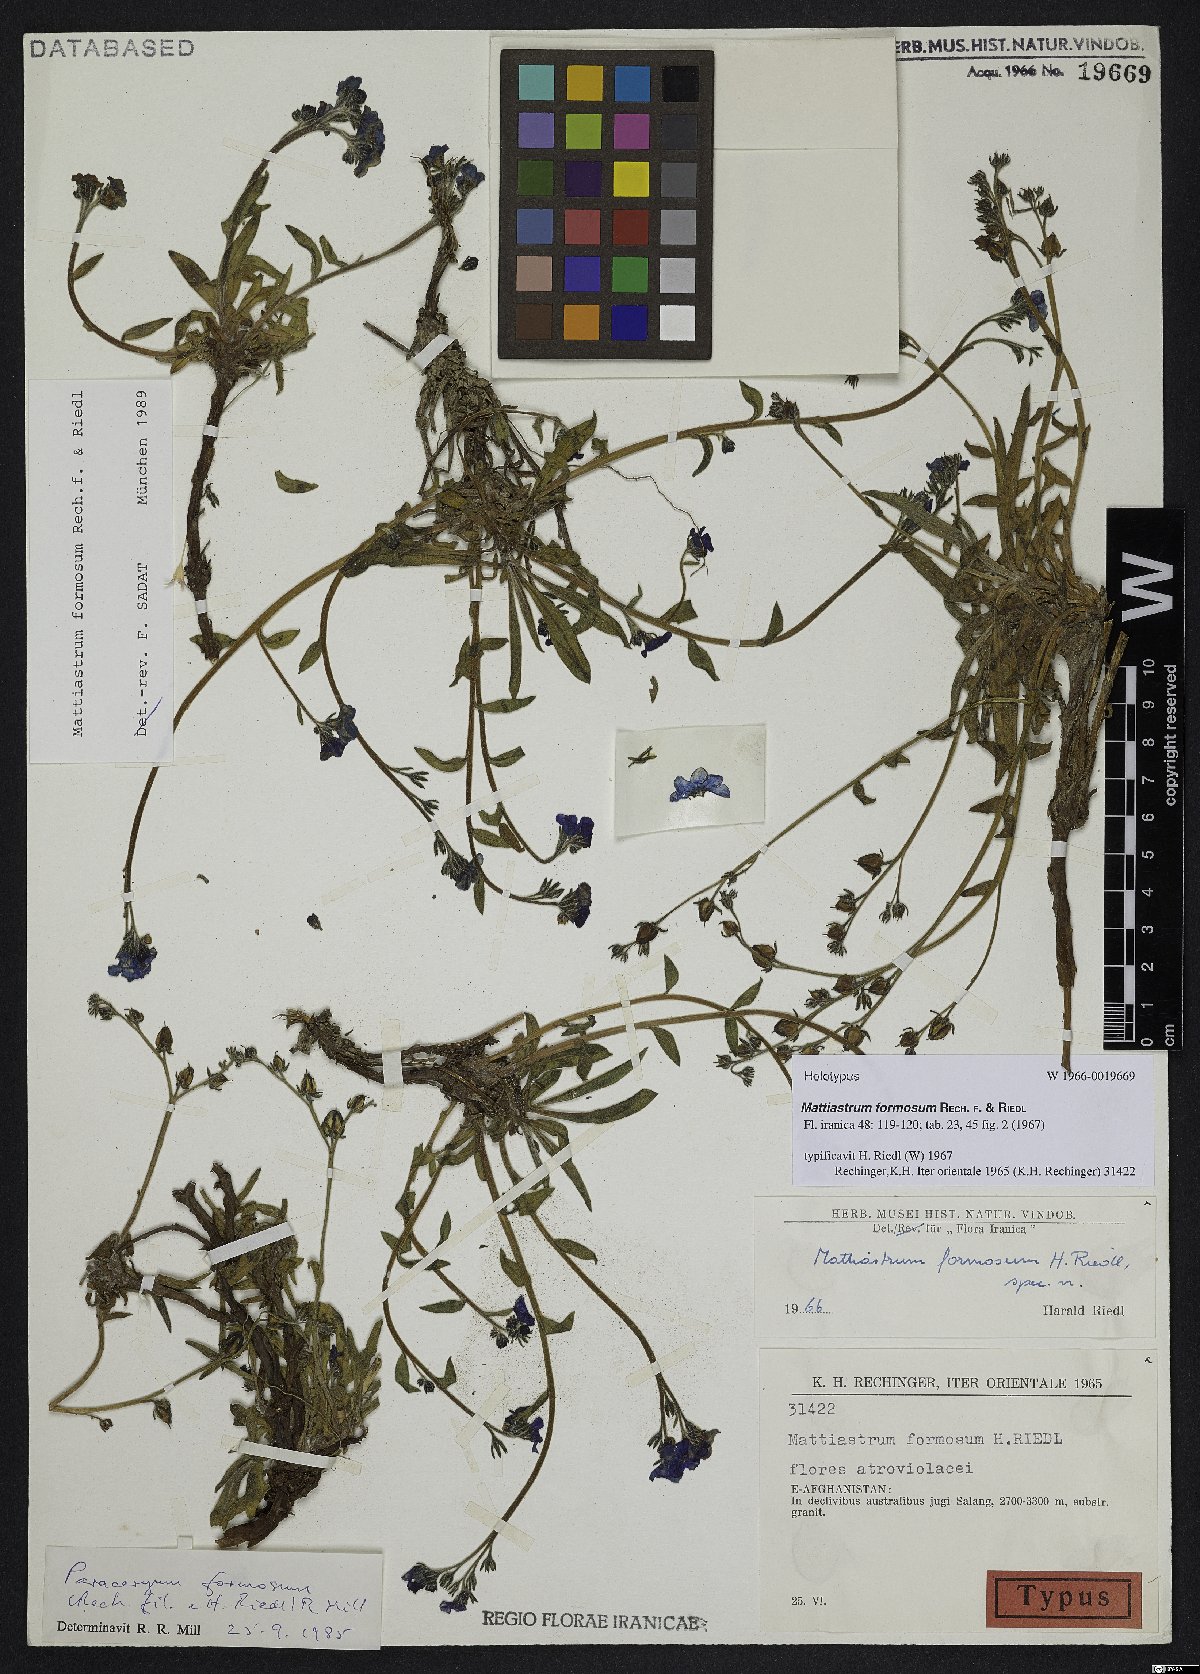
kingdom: Plantae
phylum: Tracheophyta
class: Magnoliopsida
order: Boraginales
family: Boraginaceae
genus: Paracaryum
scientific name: Paracaryum rechingeri
